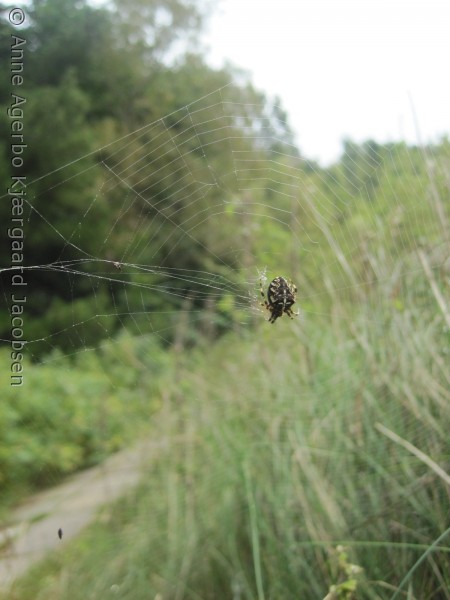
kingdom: Animalia
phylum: Arthropoda
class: Arachnida
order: Araneae
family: Araneidae
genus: Araneus
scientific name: Araneus diadematus
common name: Korsedderkop
